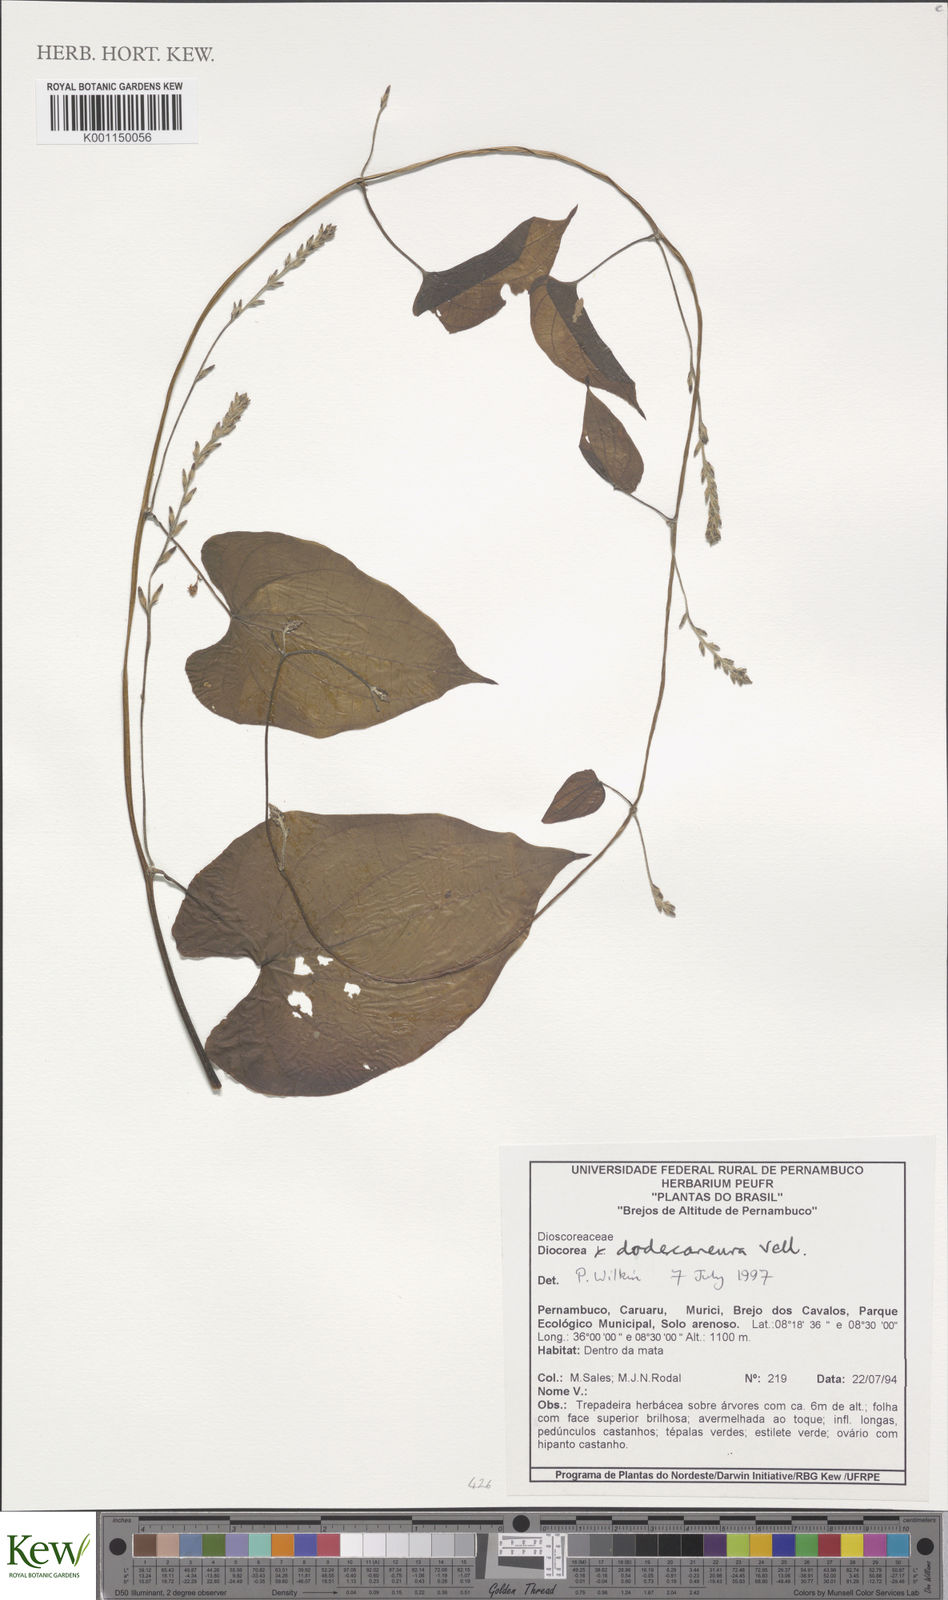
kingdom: Plantae
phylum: Tracheophyta
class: Liliopsida
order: Dioscoreales
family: Dioscoreaceae
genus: Dioscorea
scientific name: Dioscorea dodecaneura
